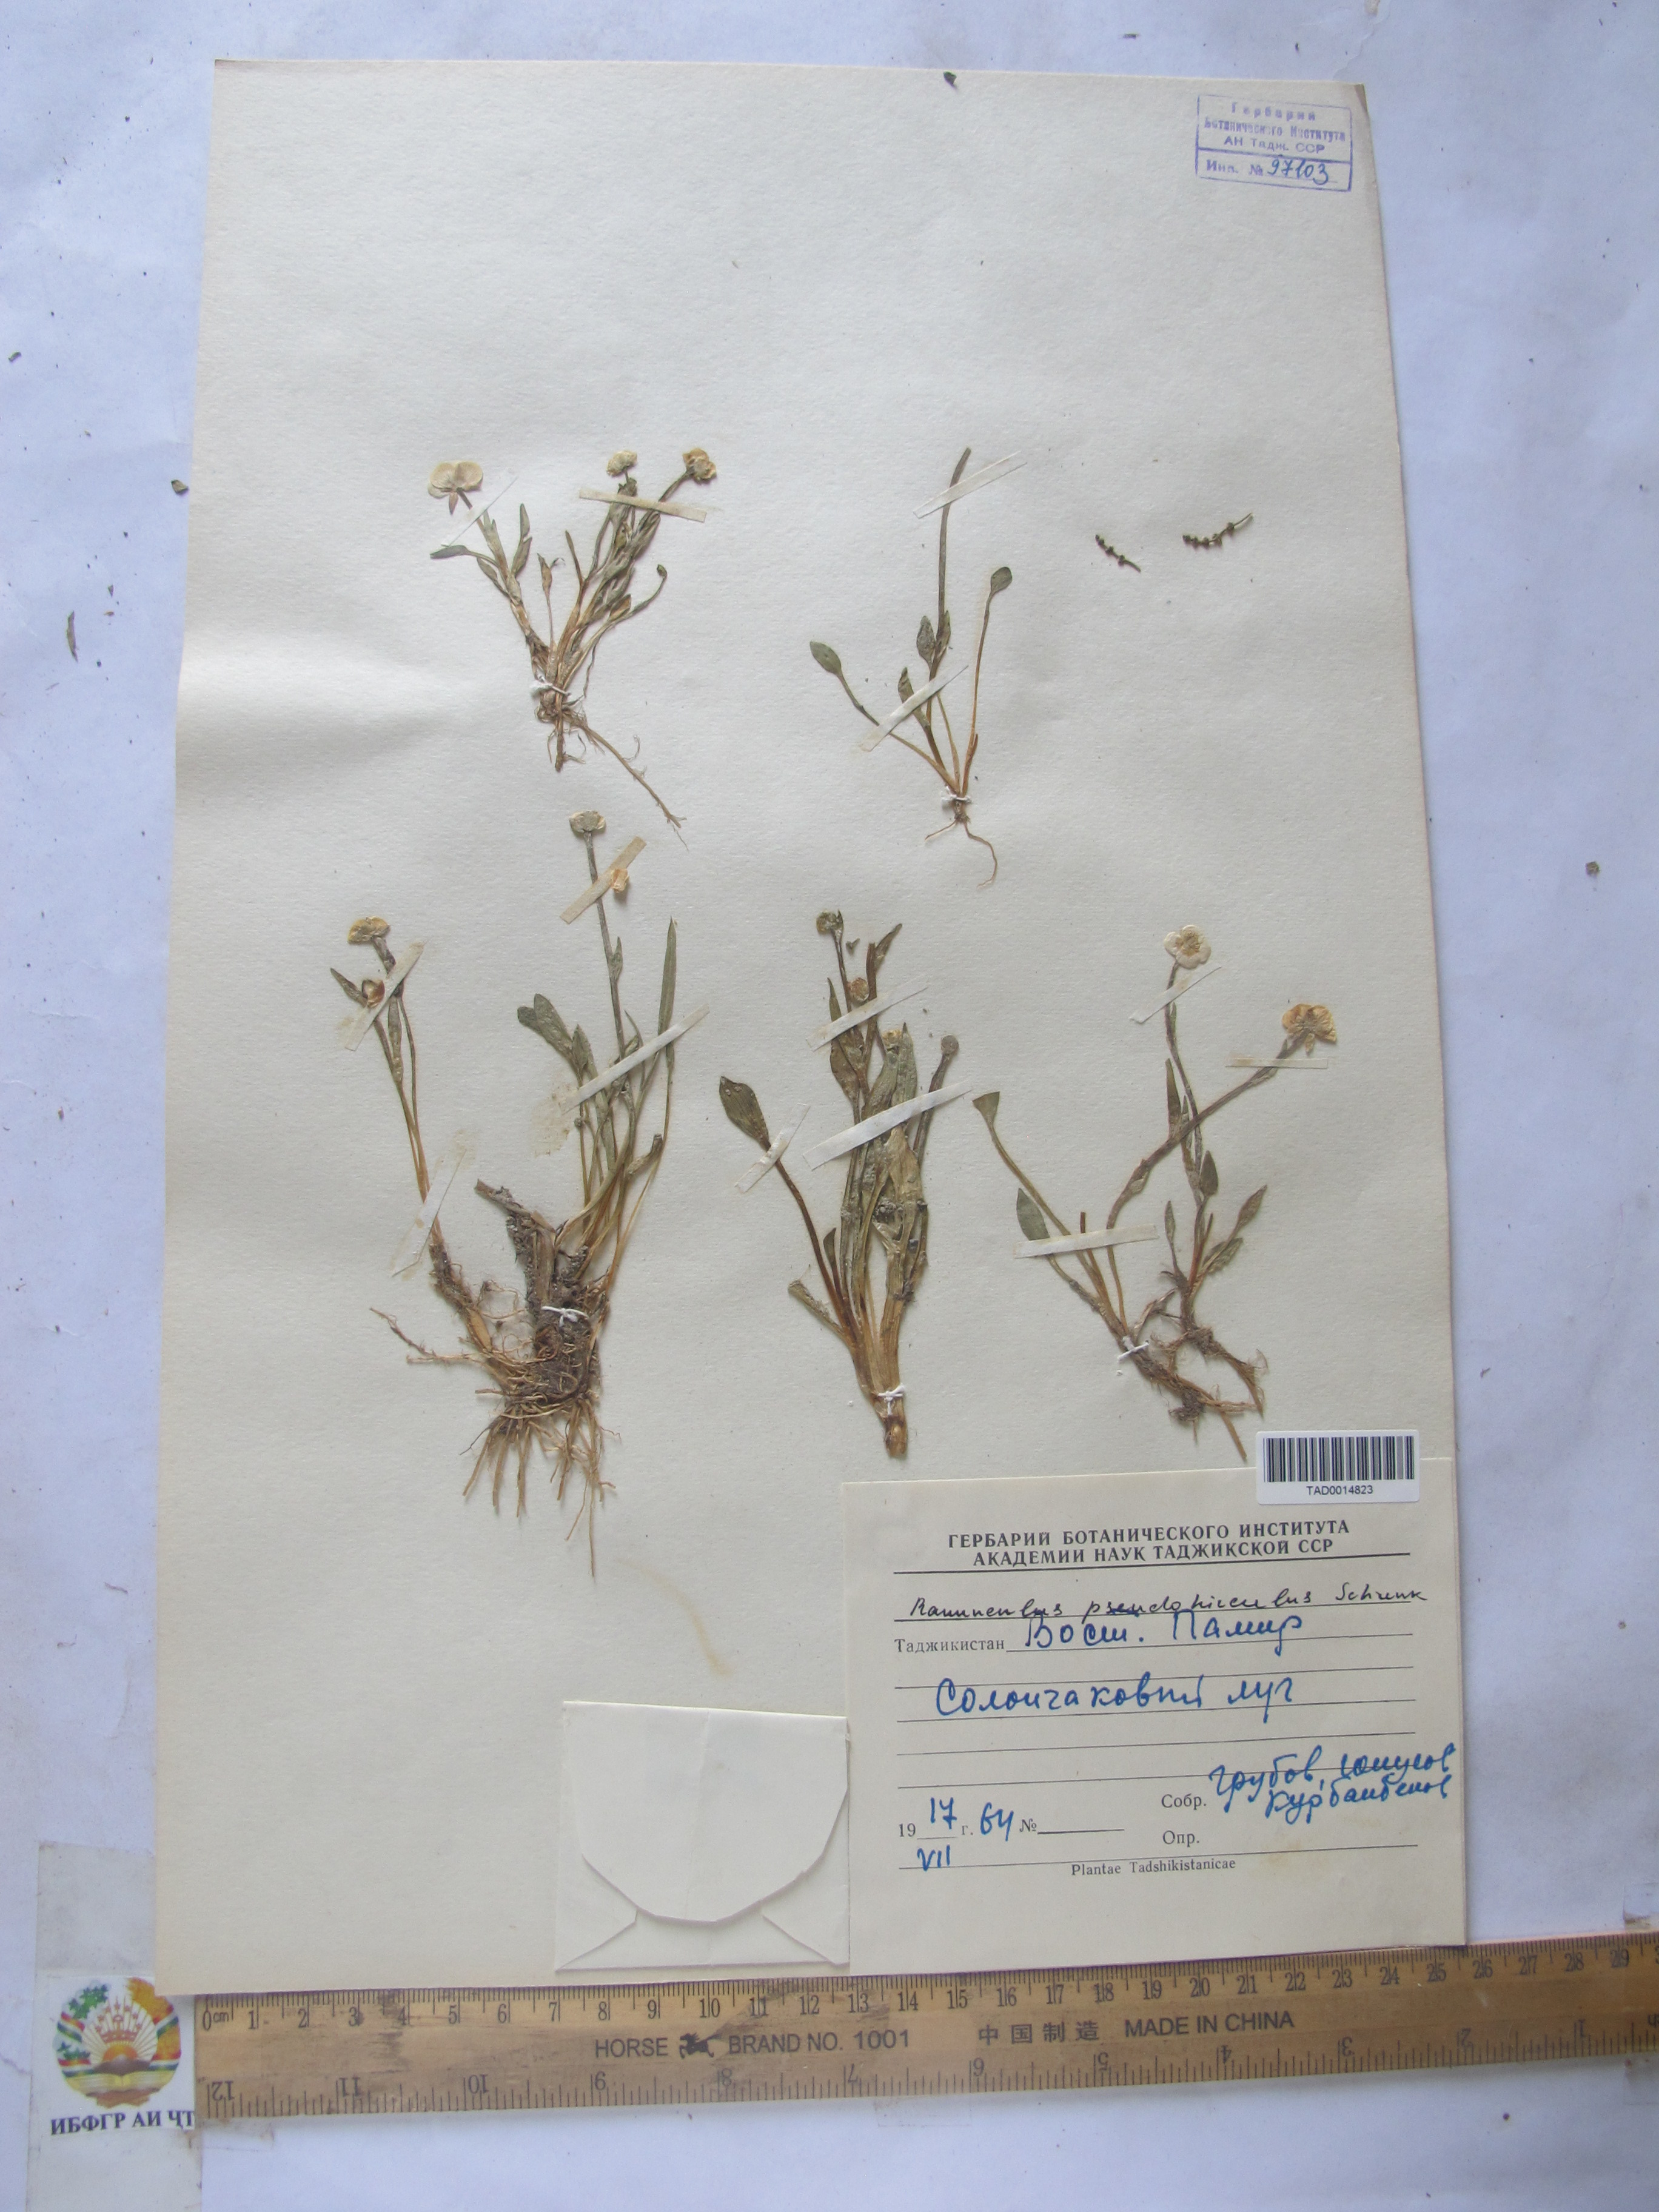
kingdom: Plantae
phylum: Tracheophyta
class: Magnoliopsida
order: Ranunculales
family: Ranunculaceae
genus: Ranunculus
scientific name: Ranunculus pseudohirculus
